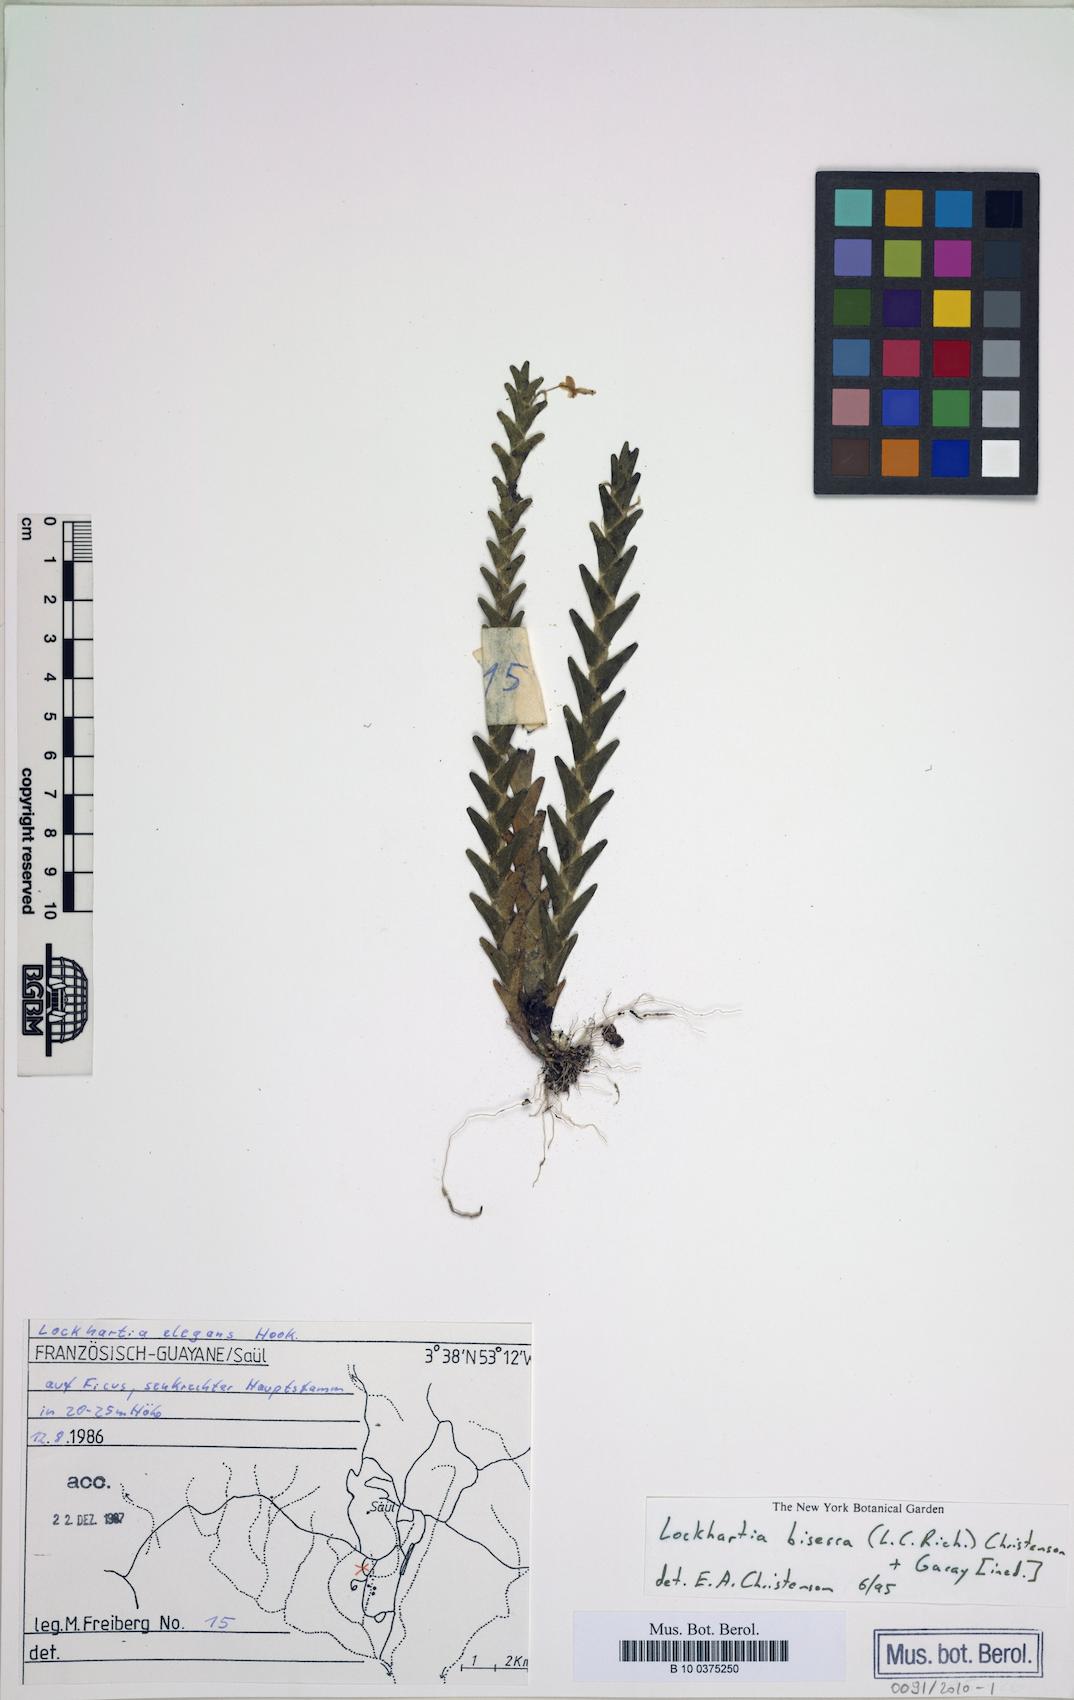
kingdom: Plantae
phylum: Tracheophyta
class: Liliopsida
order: Asparagales
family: Orchidaceae
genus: Lockhartia
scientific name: Lockhartia imbricata
